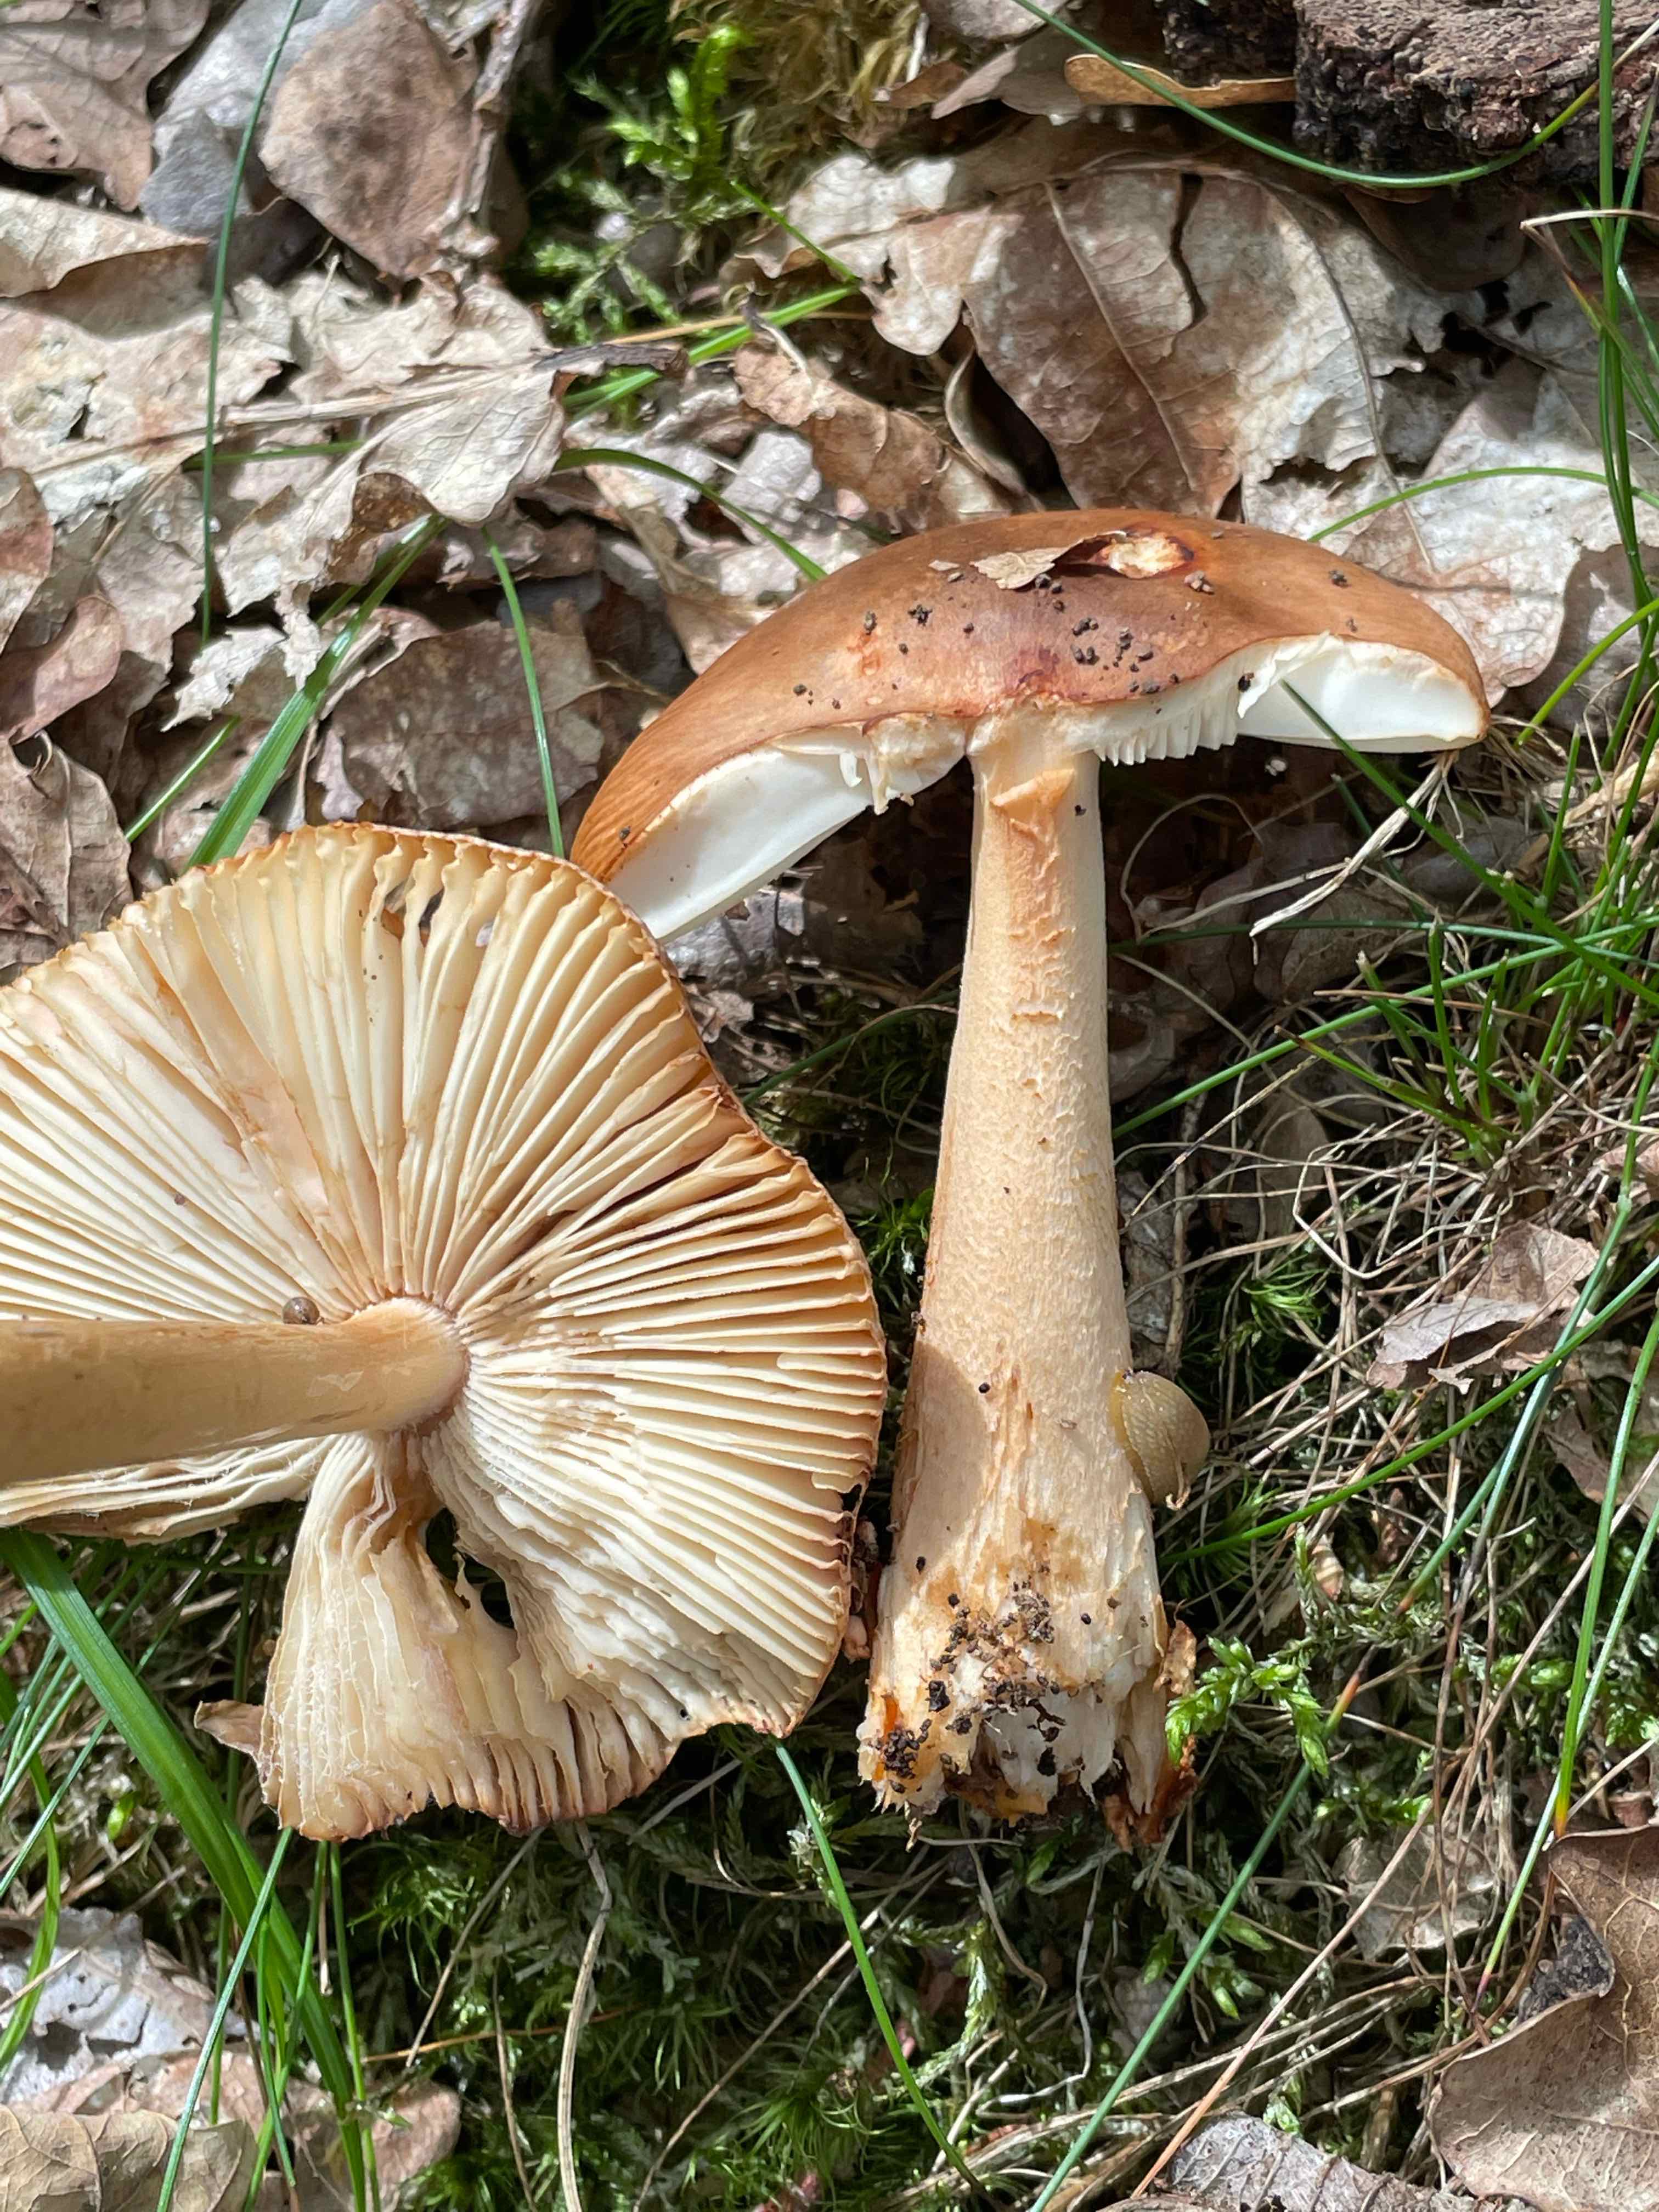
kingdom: Fungi
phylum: Basidiomycota
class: Agaricomycetes
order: Agaricales
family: Amanitaceae
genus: Amanita
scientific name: Amanita fulva
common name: brun kam-fluesvamp
